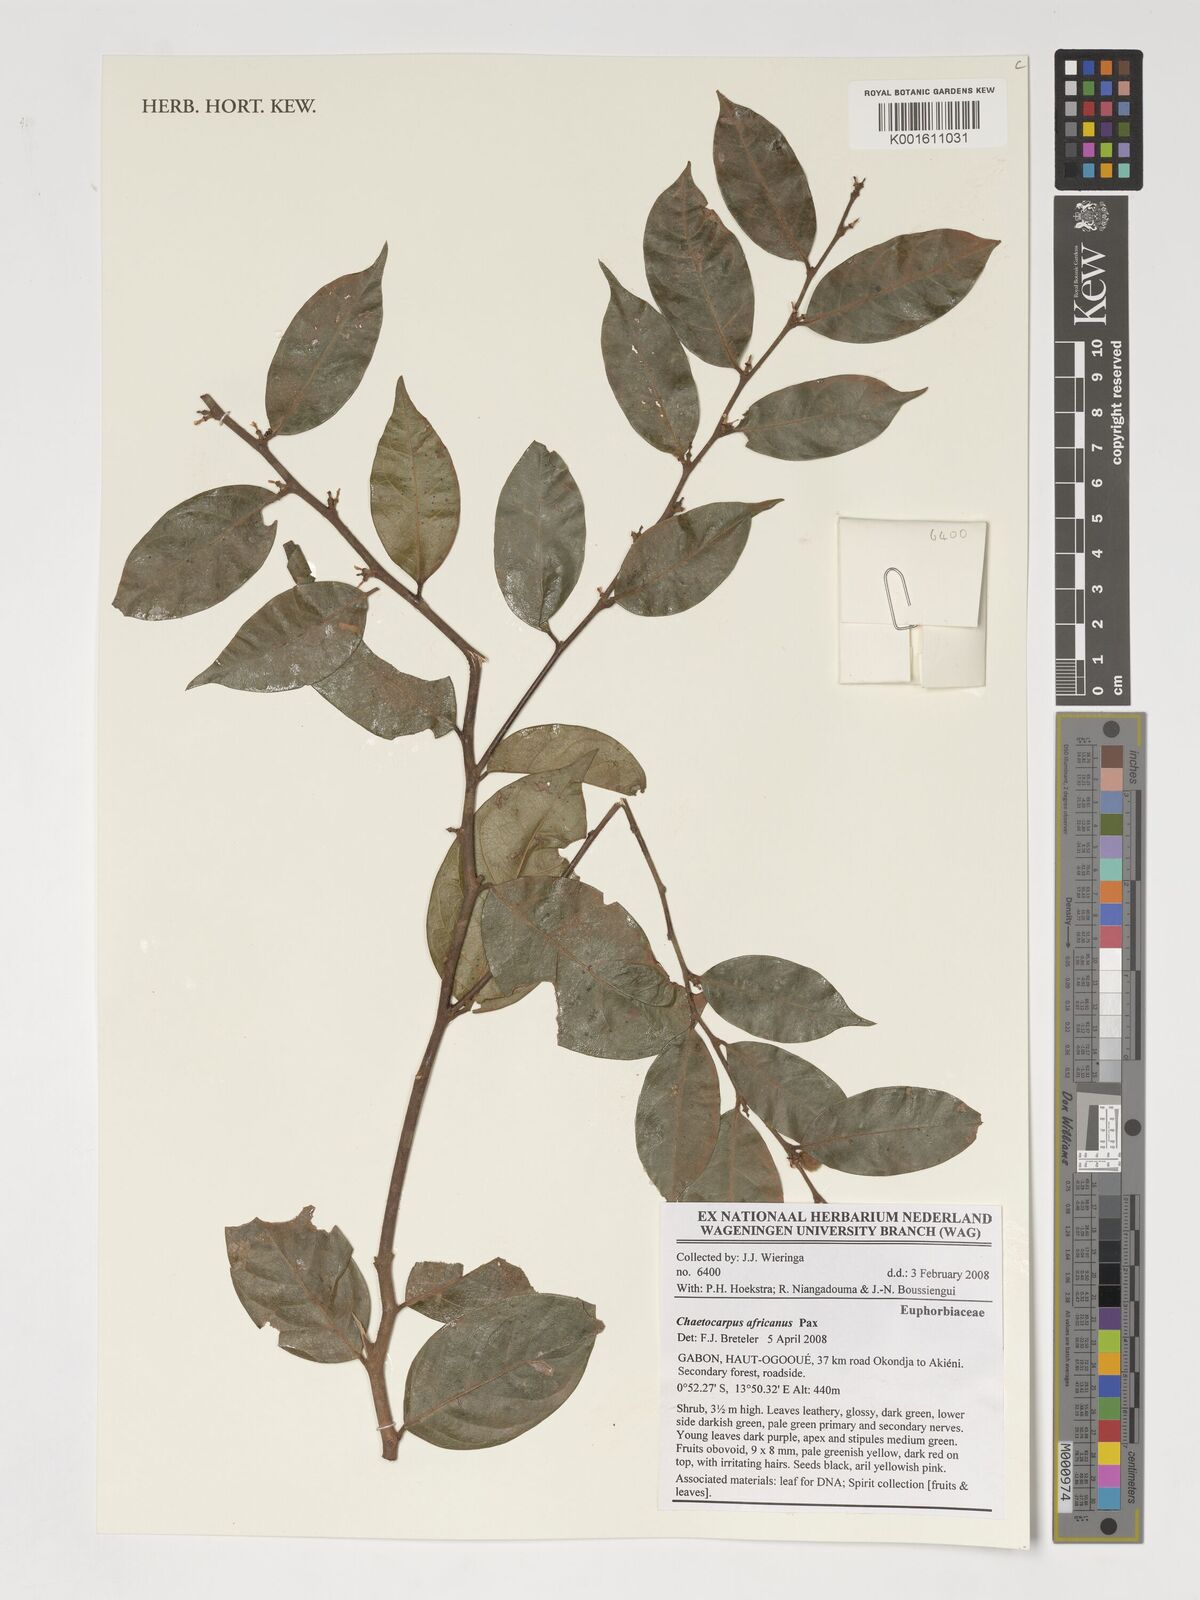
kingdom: Plantae
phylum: Tracheophyta
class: Magnoliopsida
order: Malpighiales
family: Peraceae
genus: Chaetocarpus
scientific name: Chaetocarpus africanus
